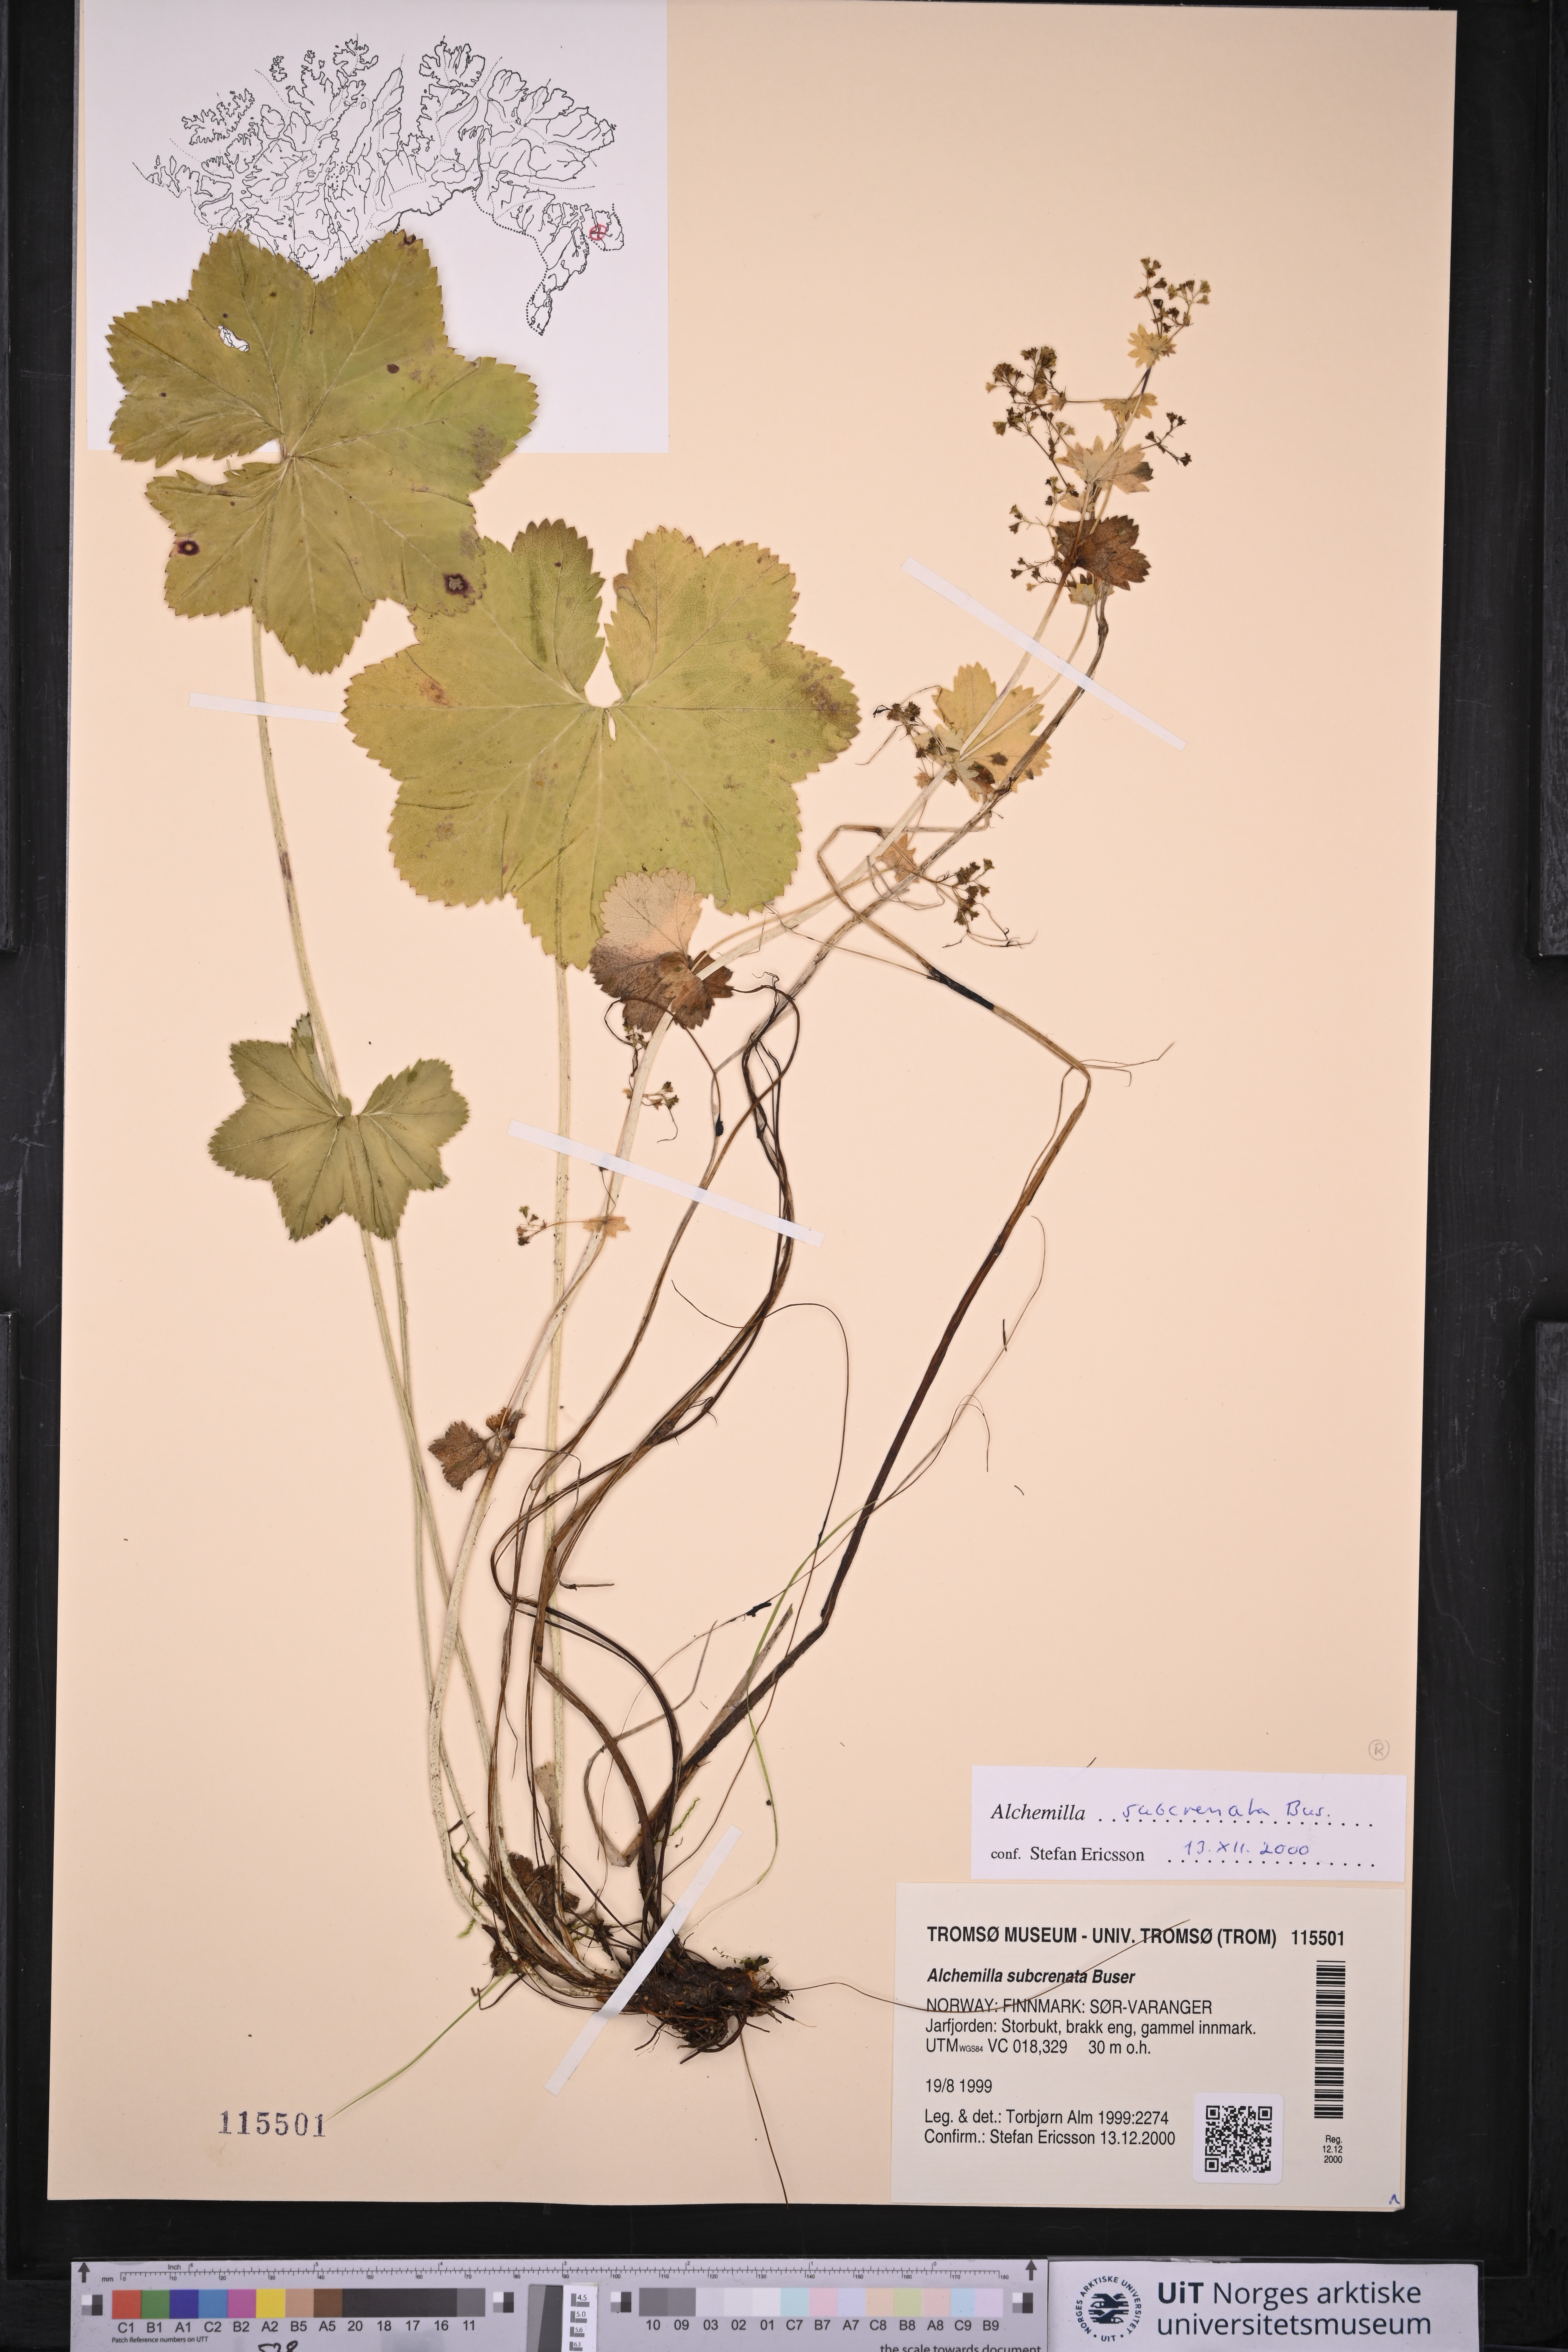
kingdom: Plantae
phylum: Tracheophyta
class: Magnoliopsida
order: Rosales
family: Rosaceae
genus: Alchemilla
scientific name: Alchemilla subcrenata
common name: Broadtooth lady's mantle
